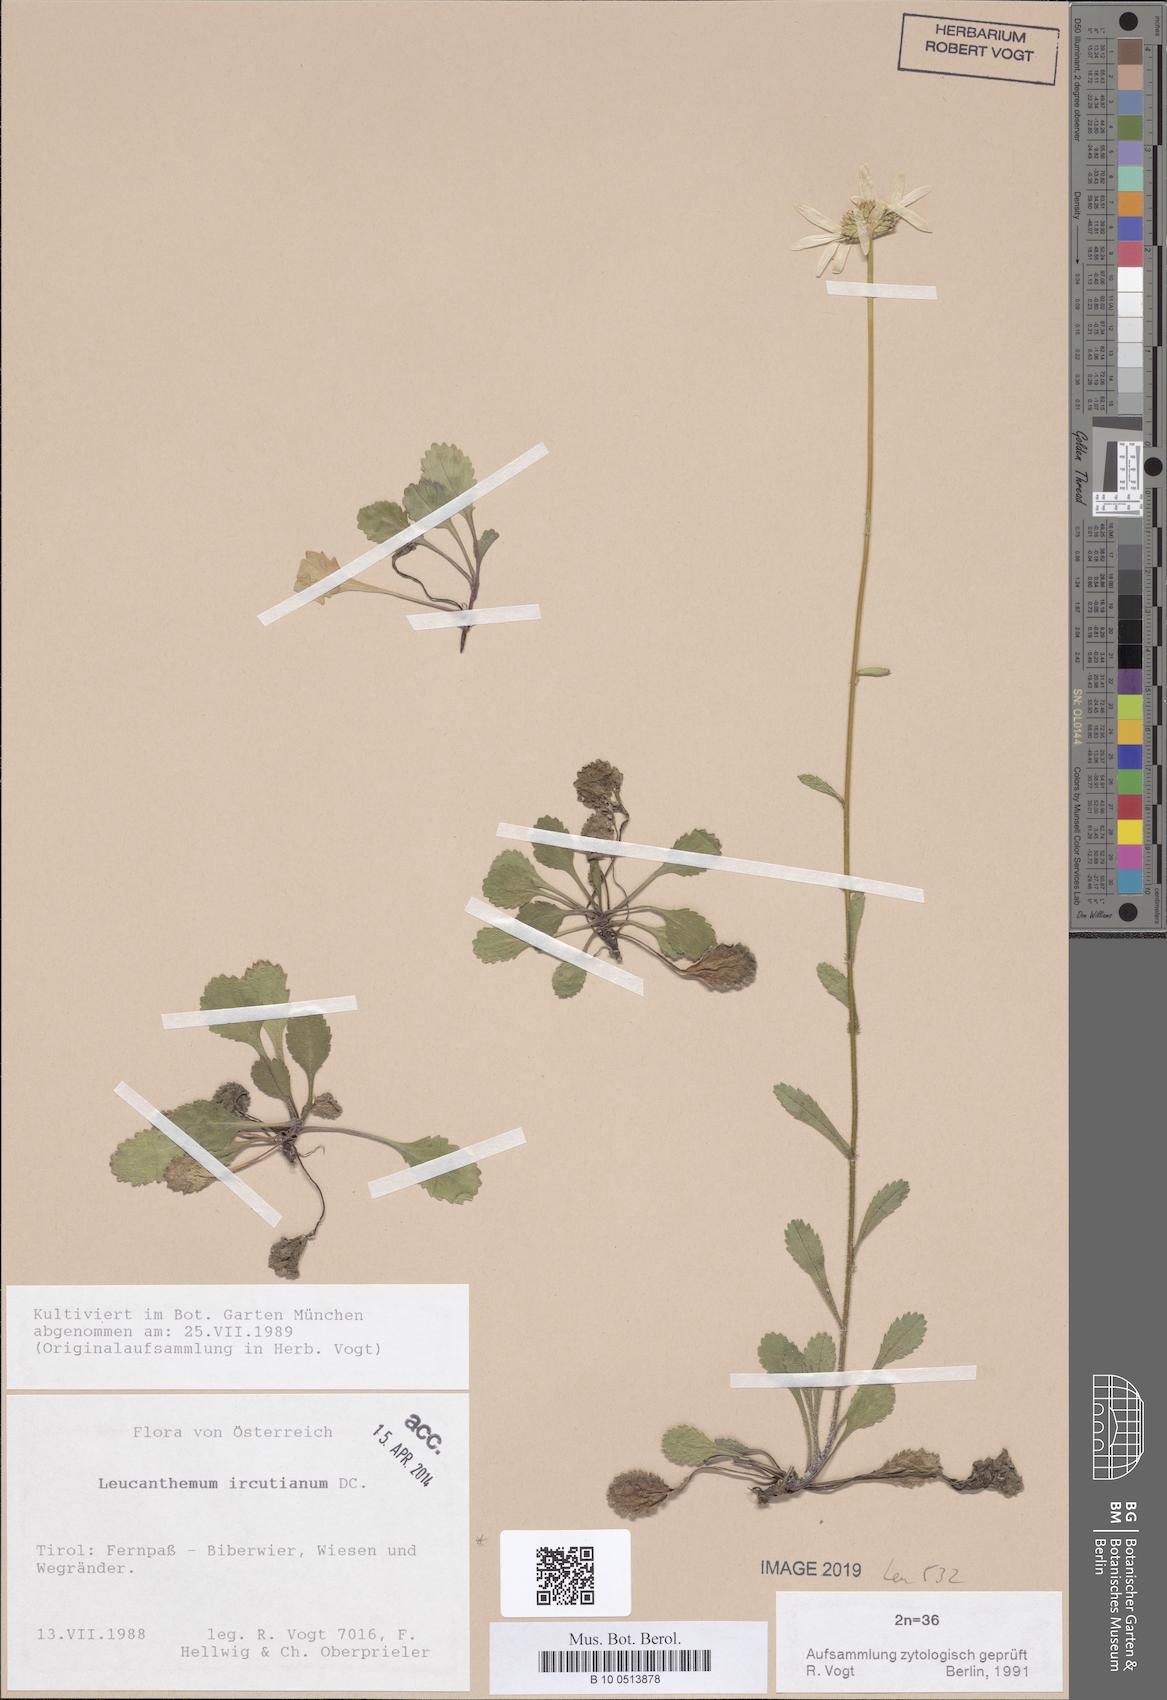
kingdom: Plantae
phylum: Tracheophyta
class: Magnoliopsida
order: Asterales
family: Asteraceae
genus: Leucanthemum
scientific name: Leucanthemum ircutianum
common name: Daisy
